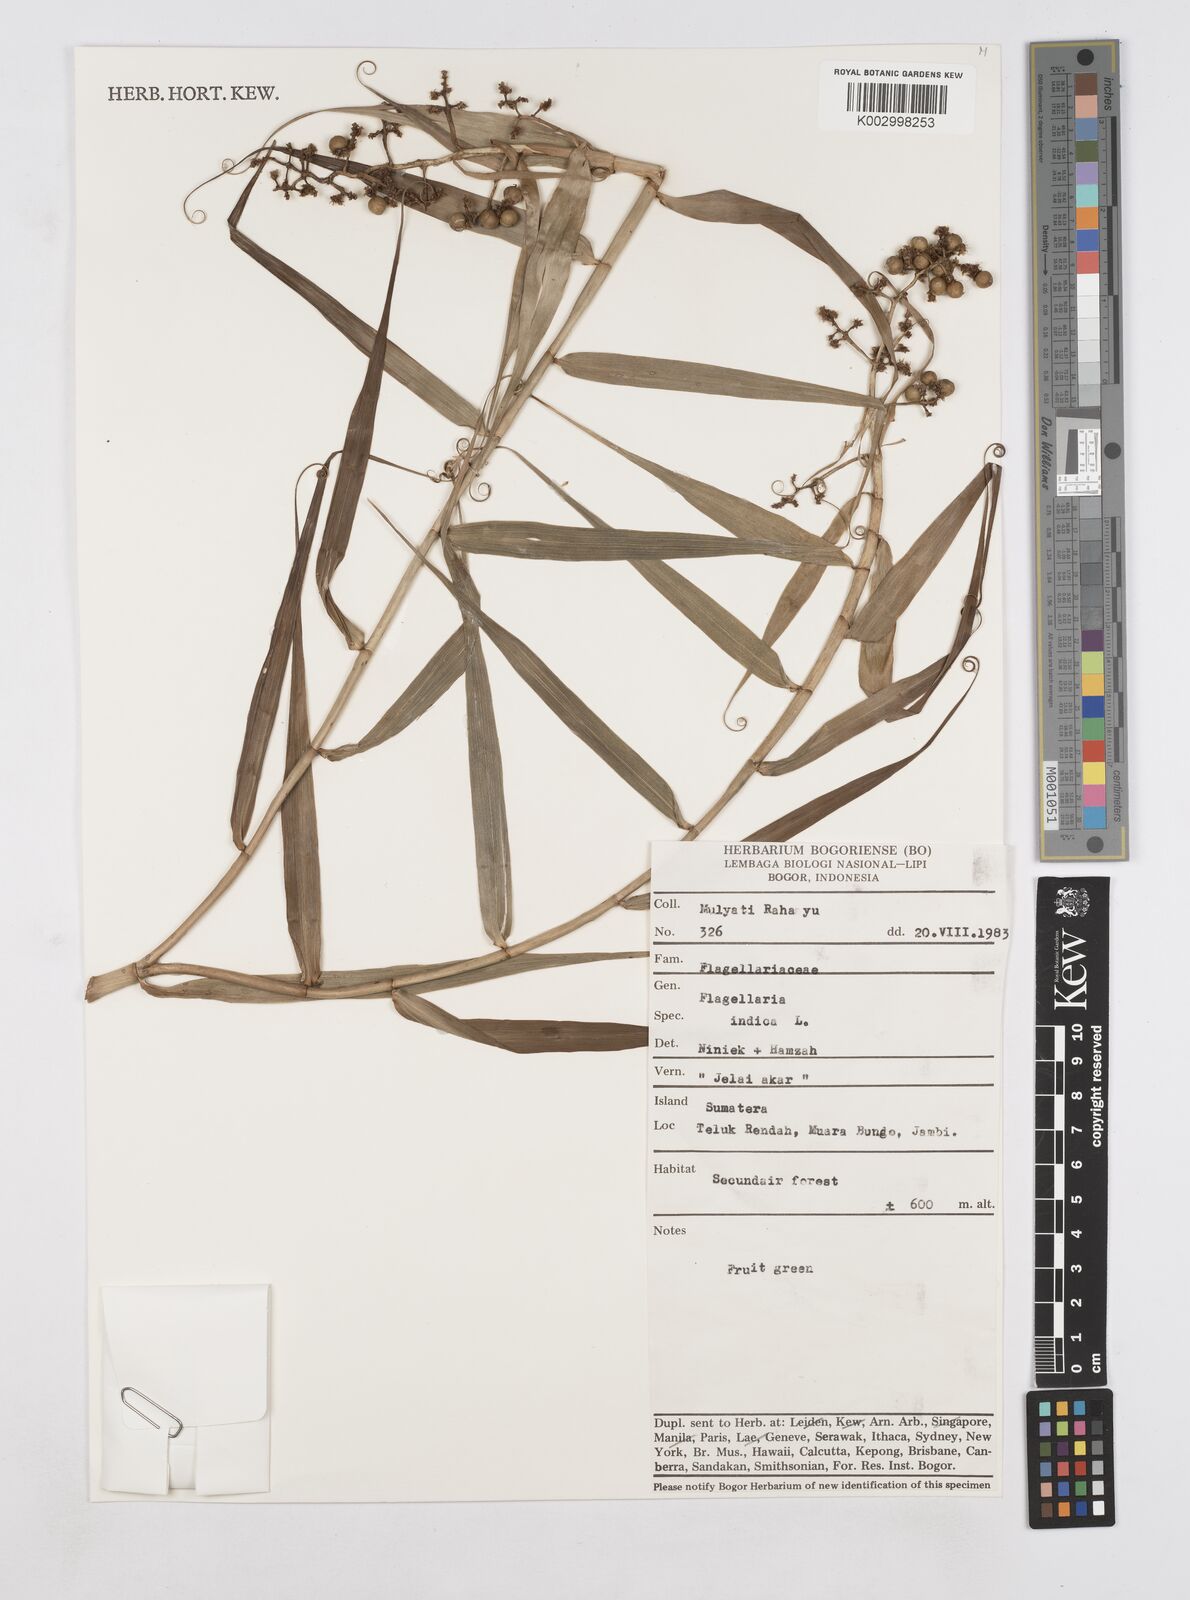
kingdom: Plantae
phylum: Tracheophyta
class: Liliopsida
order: Poales
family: Flagellariaceae
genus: Flagellaria
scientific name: Flagellaria indica
